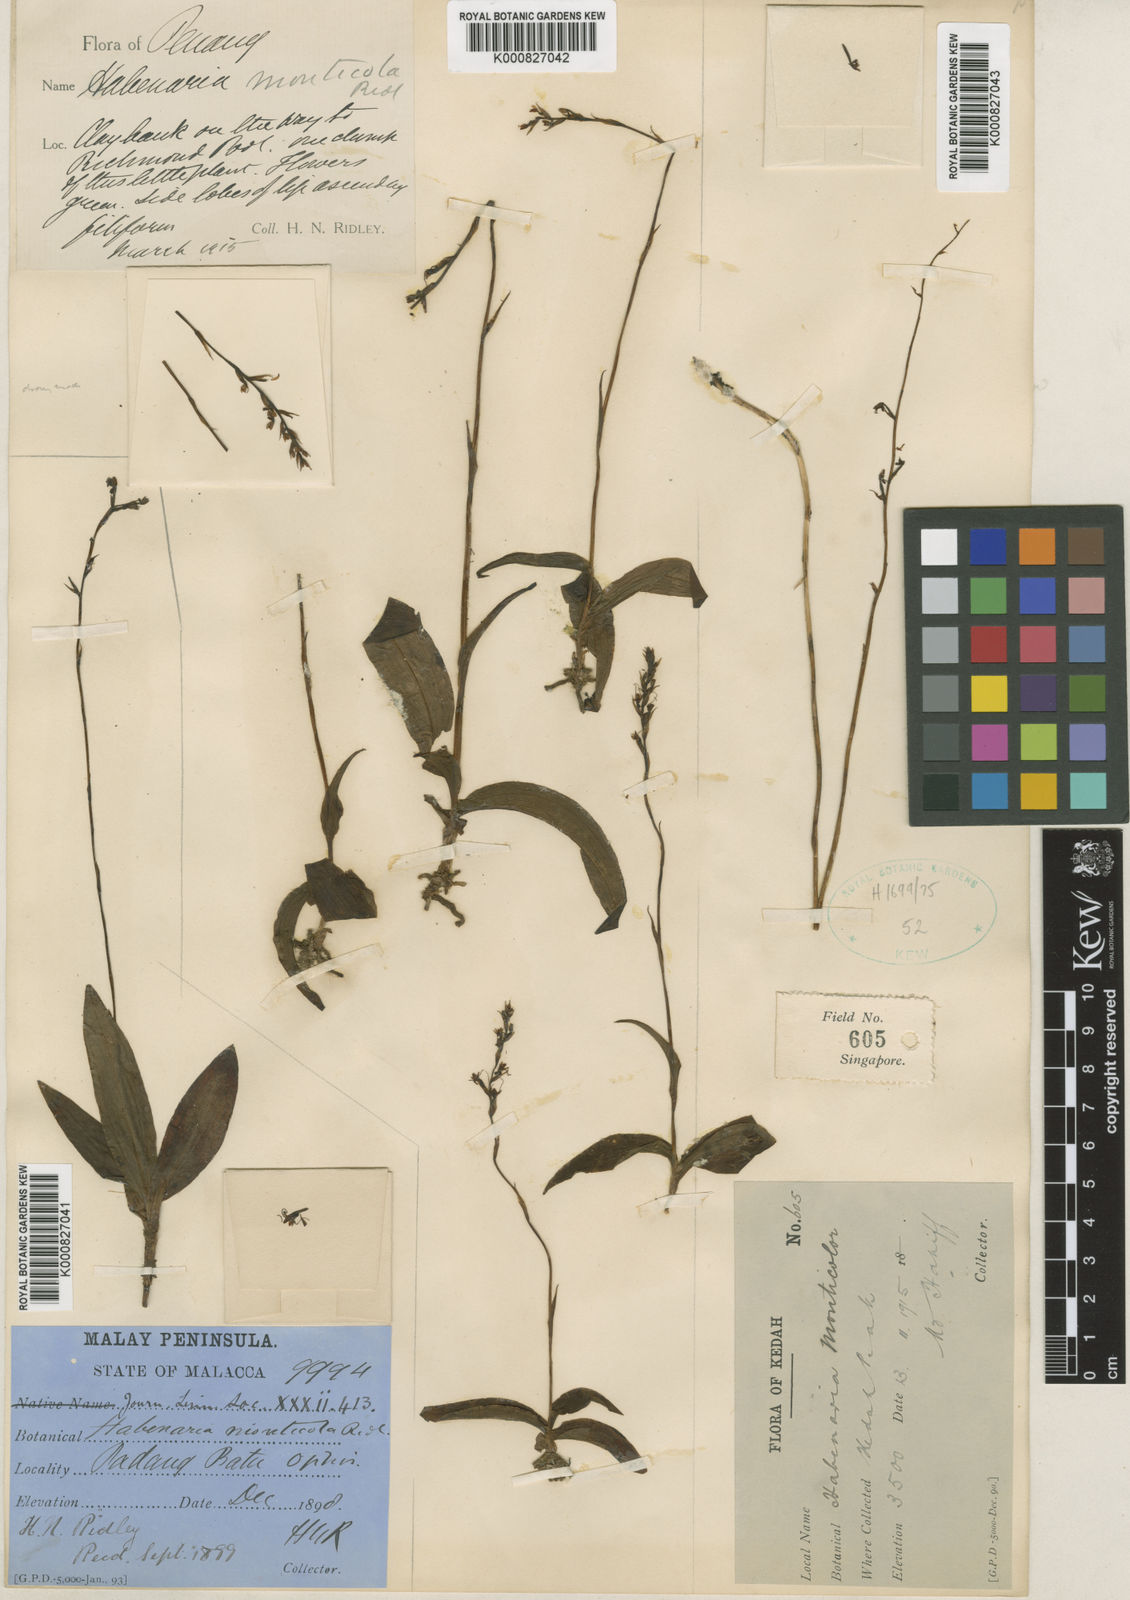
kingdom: Plantae
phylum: Tracheophyta
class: Liliopsida
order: Asparagales
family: Orchidaceae
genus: Peristylus
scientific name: Peristylus monticola
